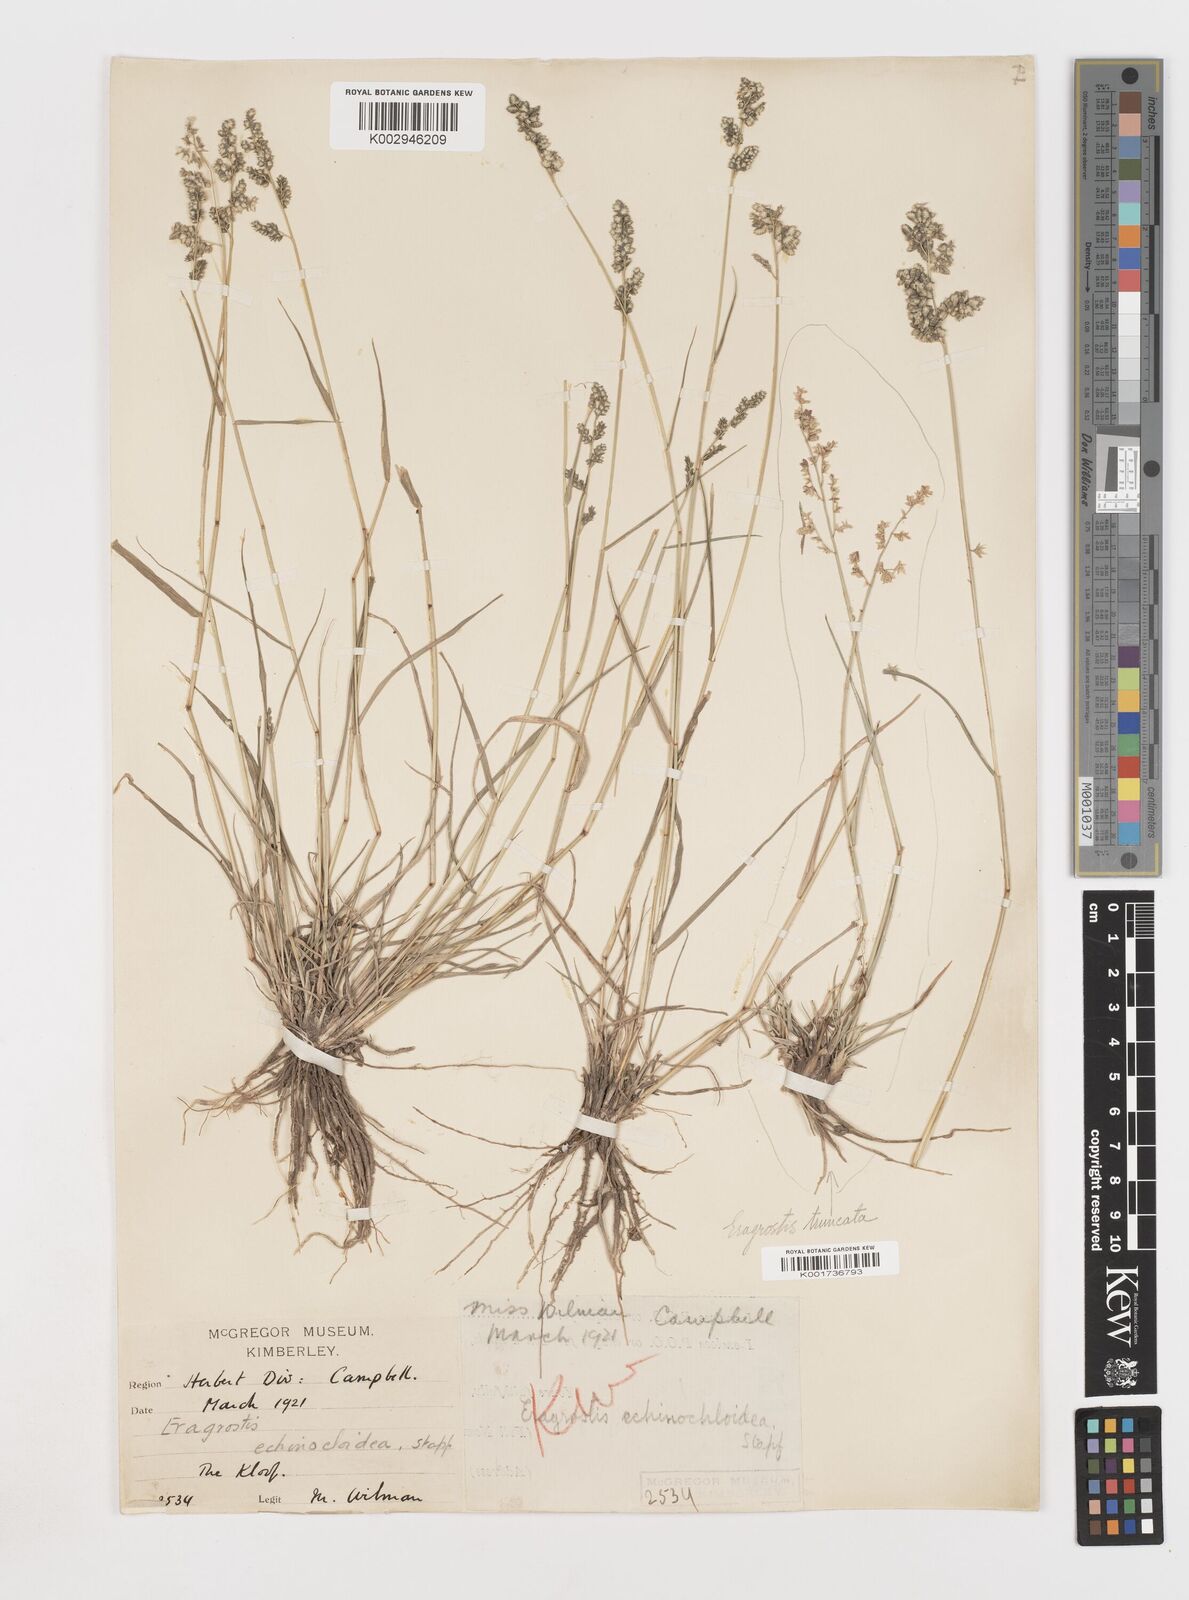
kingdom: Plantae
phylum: Tracheophyta
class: Liliopsida
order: Poales
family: Poaceae
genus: Eragrostis
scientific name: Eragrostis echinochloidea
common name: African lovegrass
